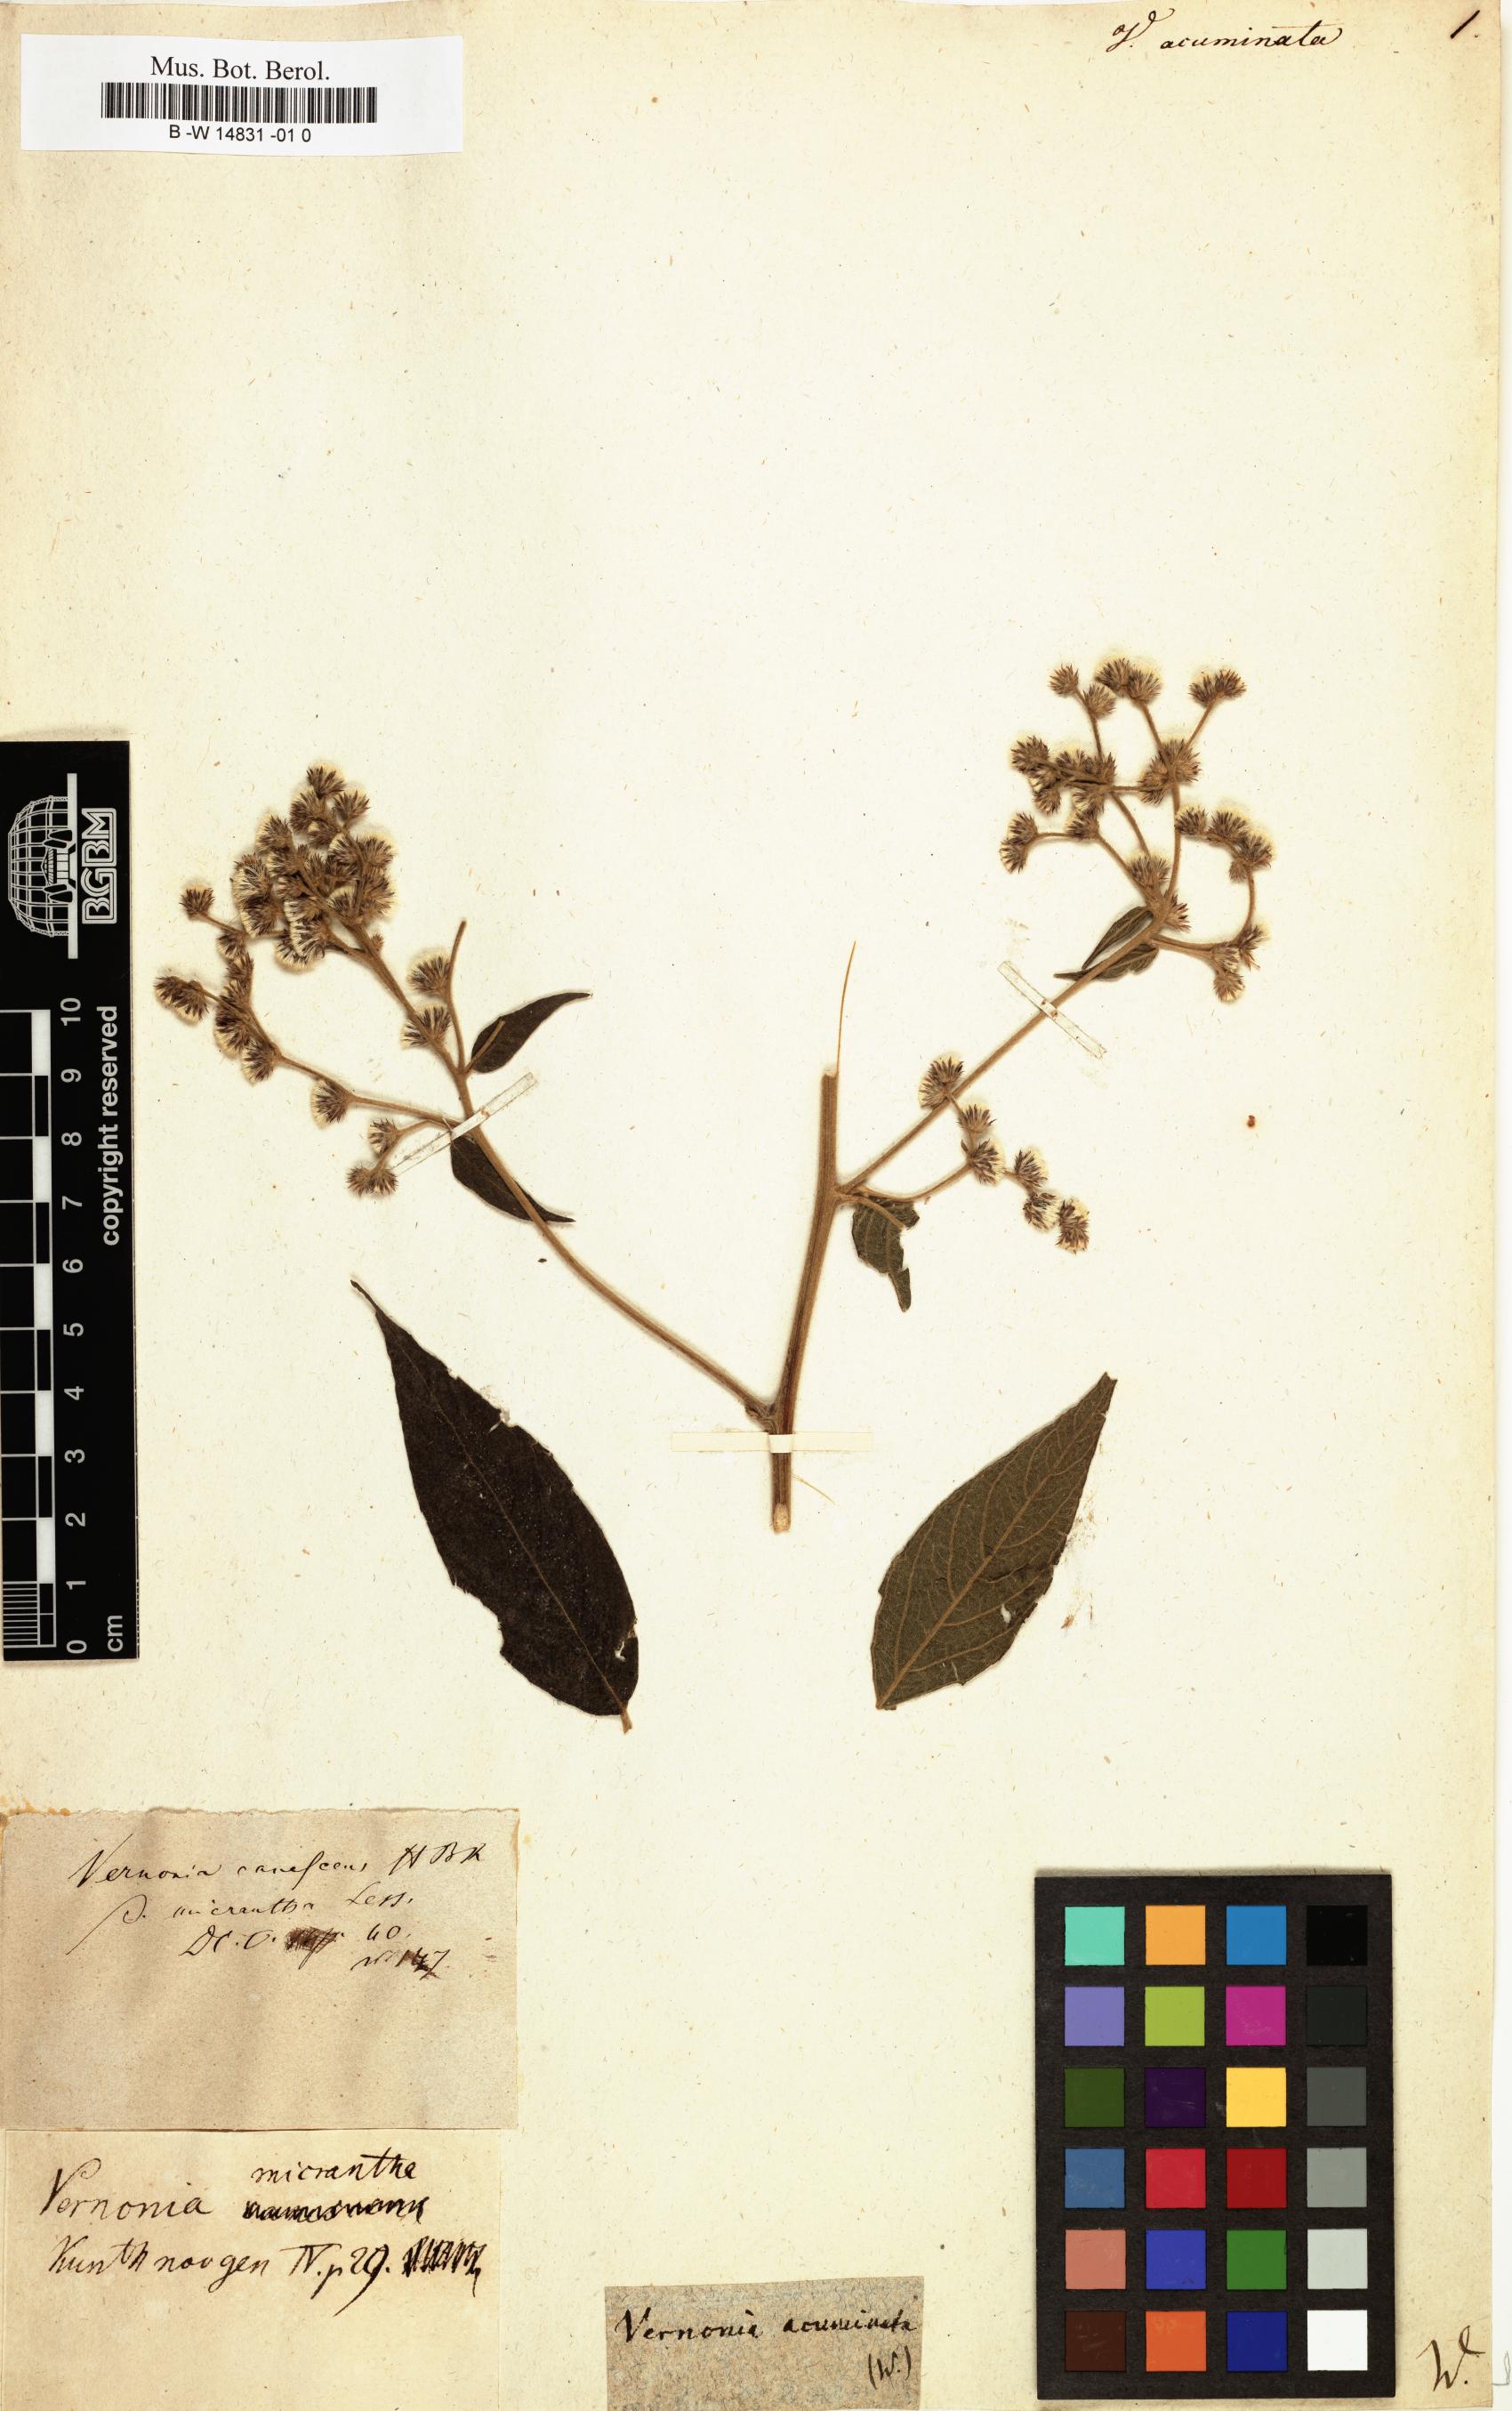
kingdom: Plantae
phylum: Tracheophyta
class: Magnoliopsida
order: Asterales
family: Asteraceae
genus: Vernonia
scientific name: Vernonia acuminata
